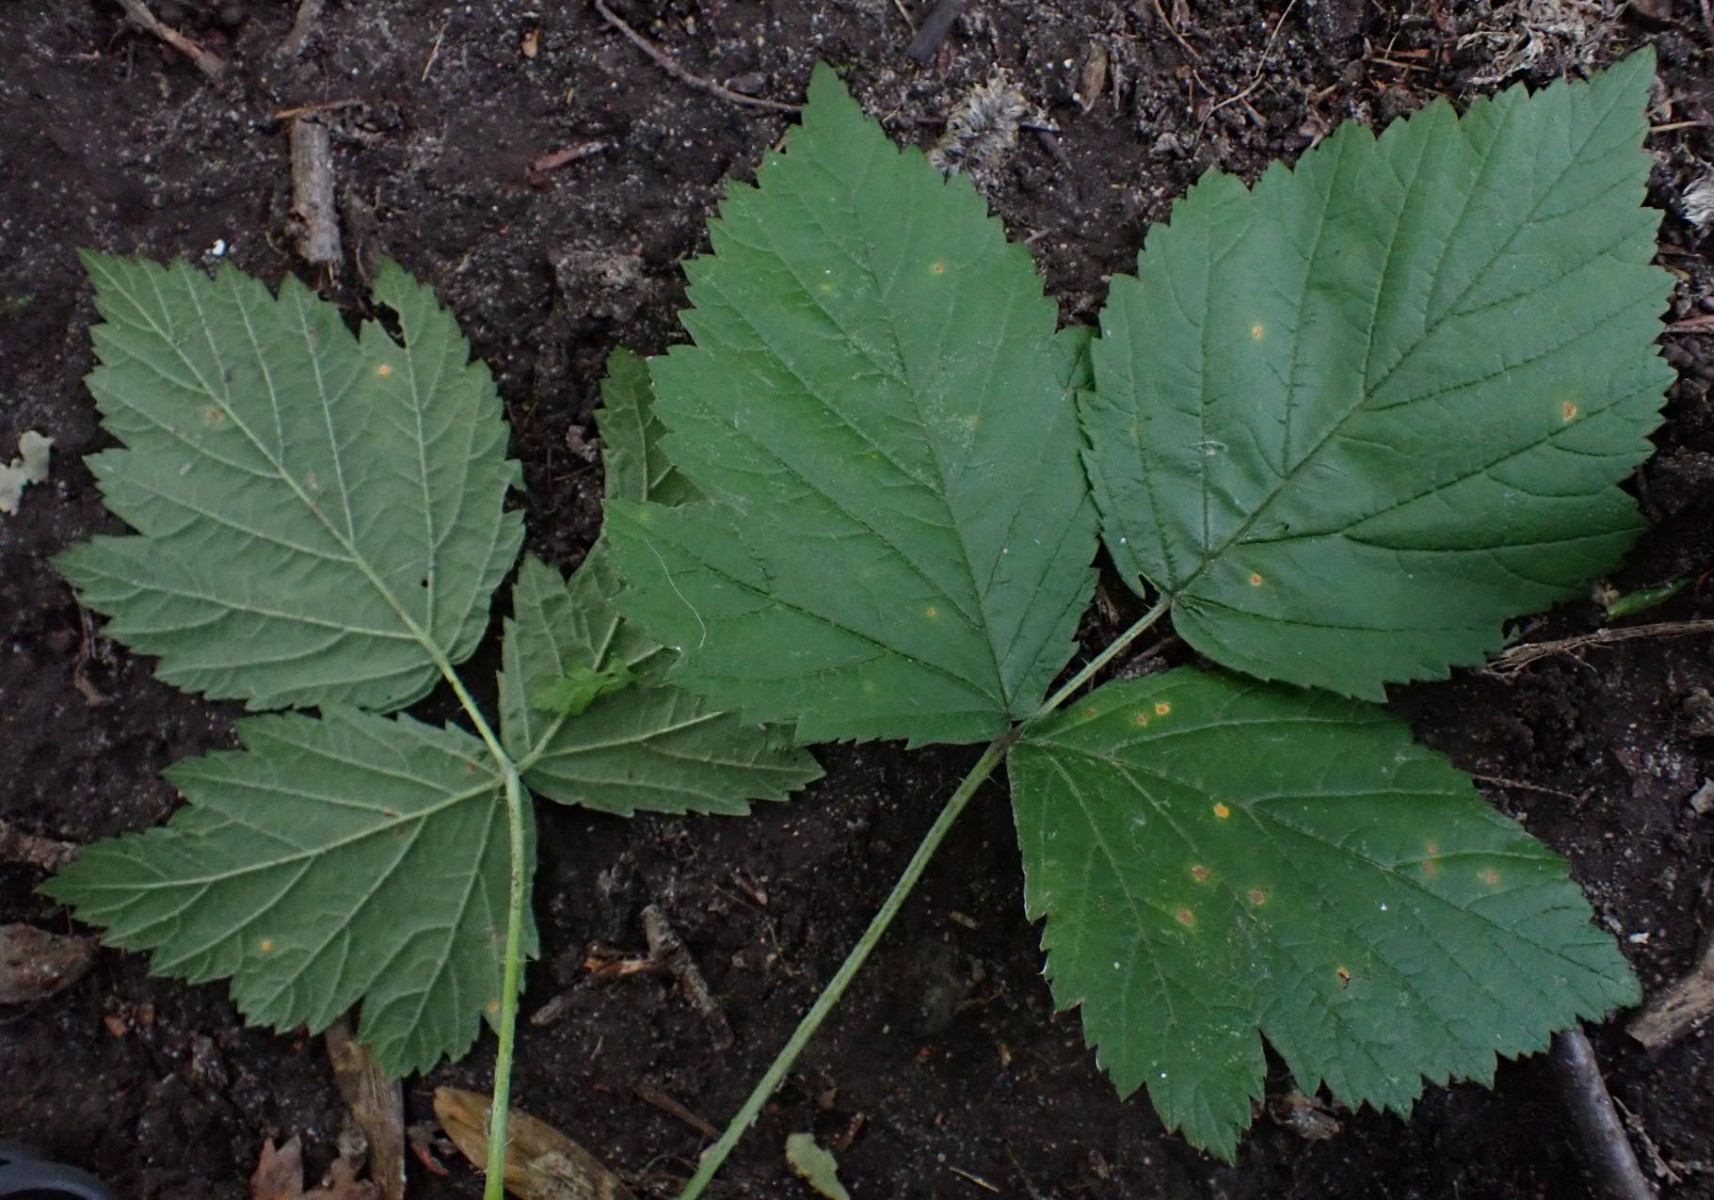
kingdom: Fungi
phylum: Basidiomycota
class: Pucciniomycetes
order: Pucciniales
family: Phragmidiaceae
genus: Phragmidium
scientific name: Phragmidium rubi-idaei
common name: hindbær-flercellerust
